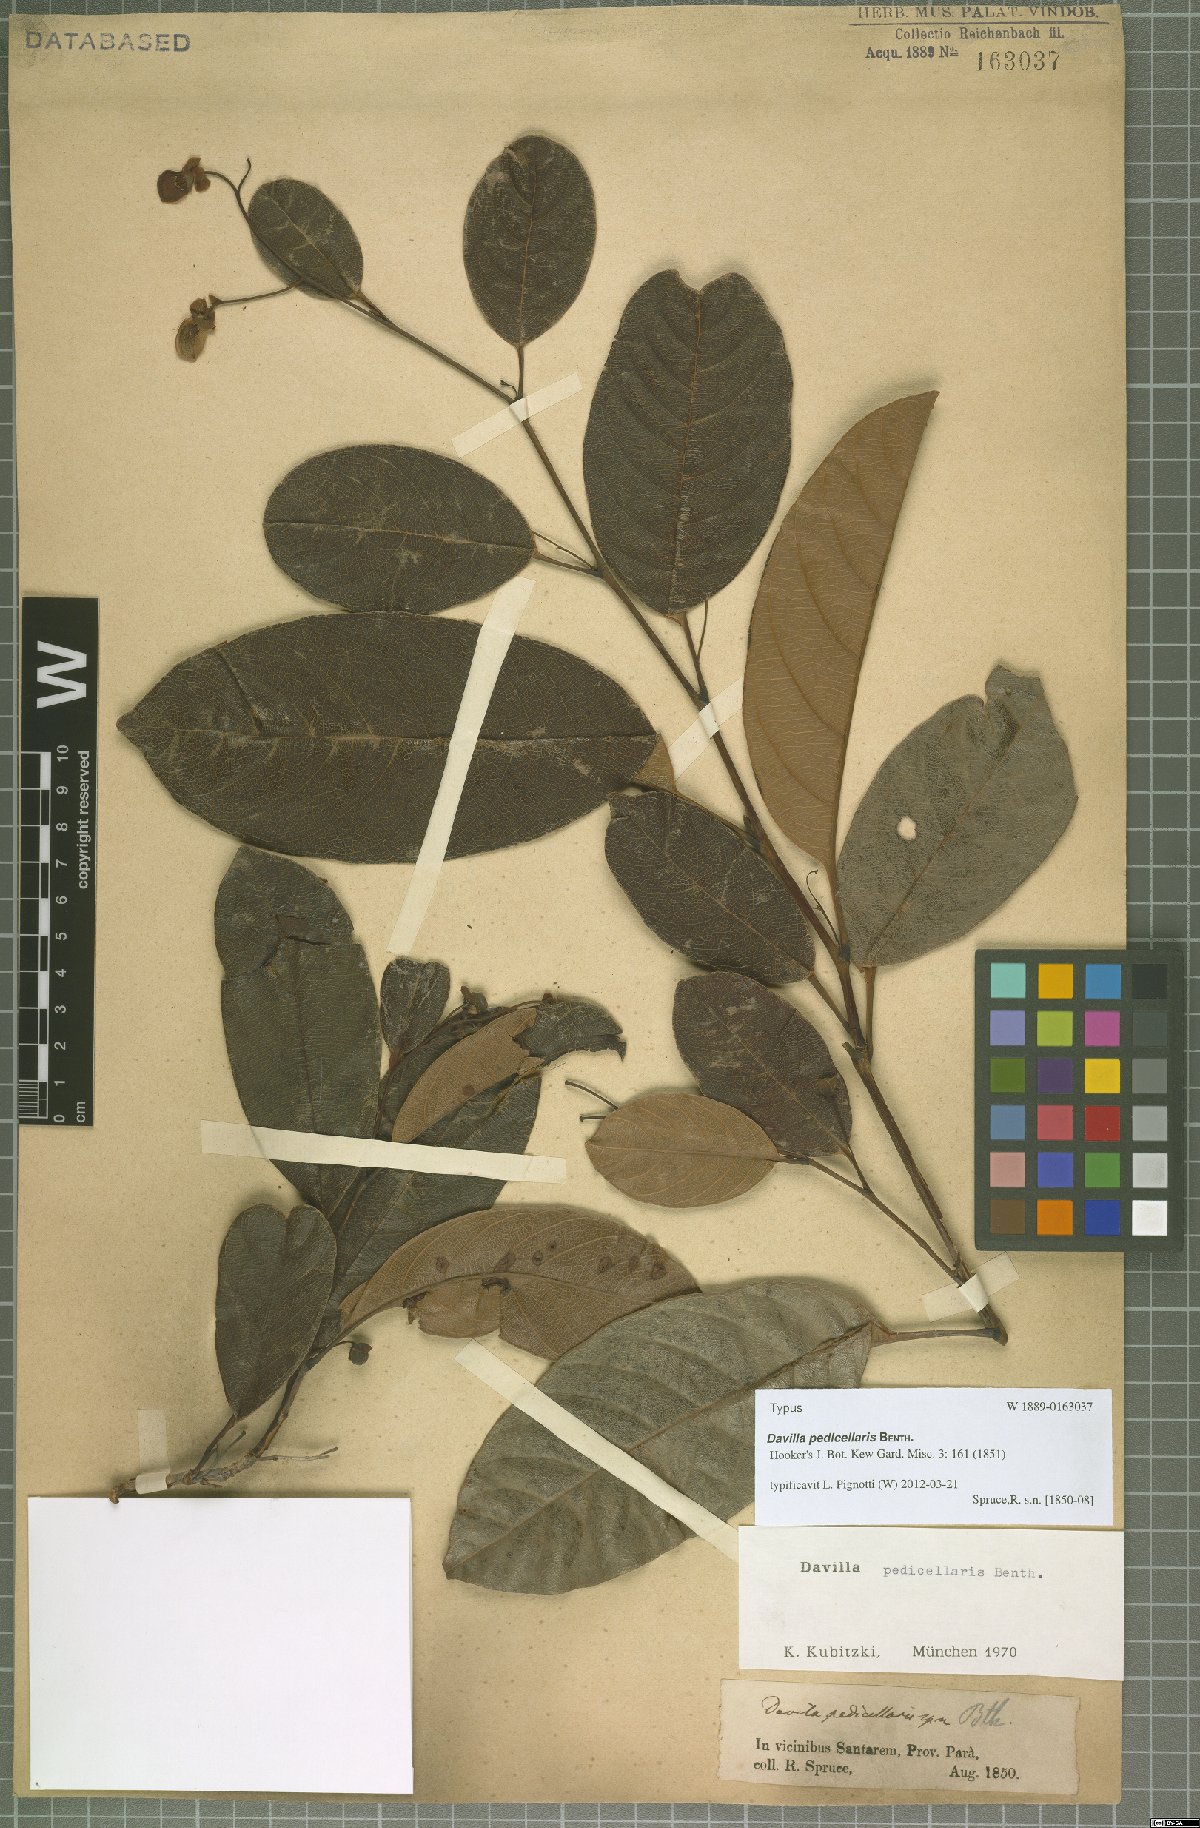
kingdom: Plantae
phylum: Tracheophyta
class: Magnoliopsida
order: Dilleniales
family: Dilleniaceae
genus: Davilla
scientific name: Davilla pedicellaris
